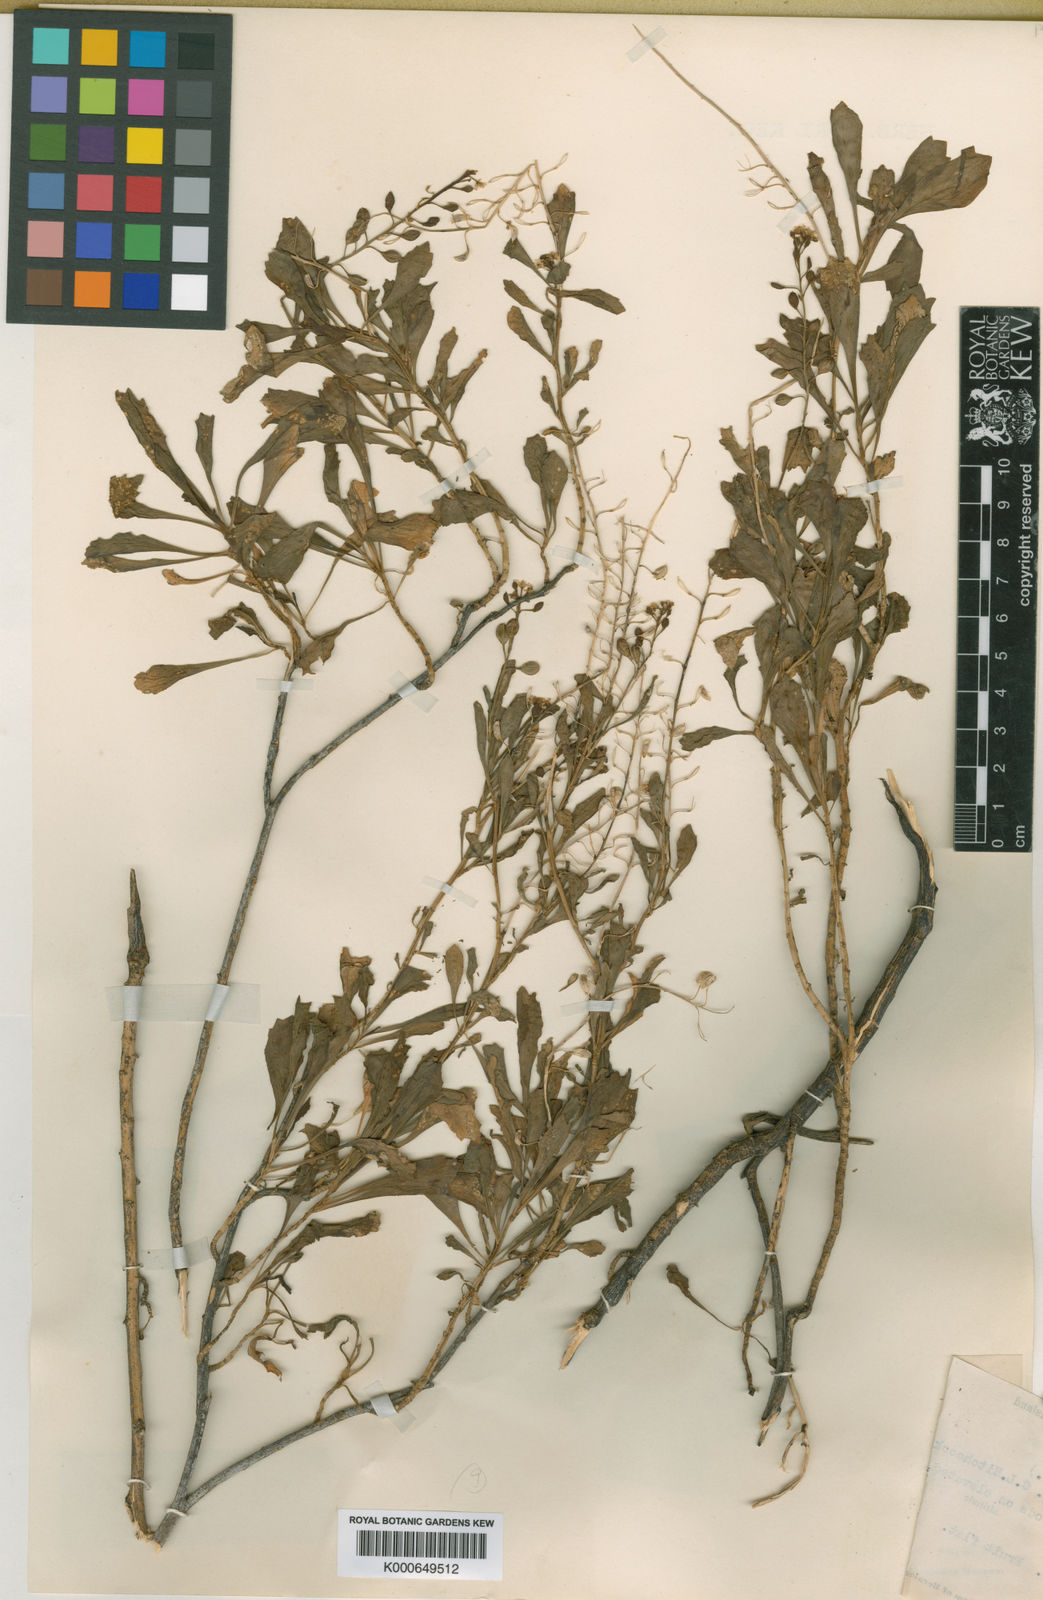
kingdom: Plantae
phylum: Tracheophyta
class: Magnoliopsida
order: Brassicales
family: Brassicaceae
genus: Lepidium
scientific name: Lepidium bidentatum
